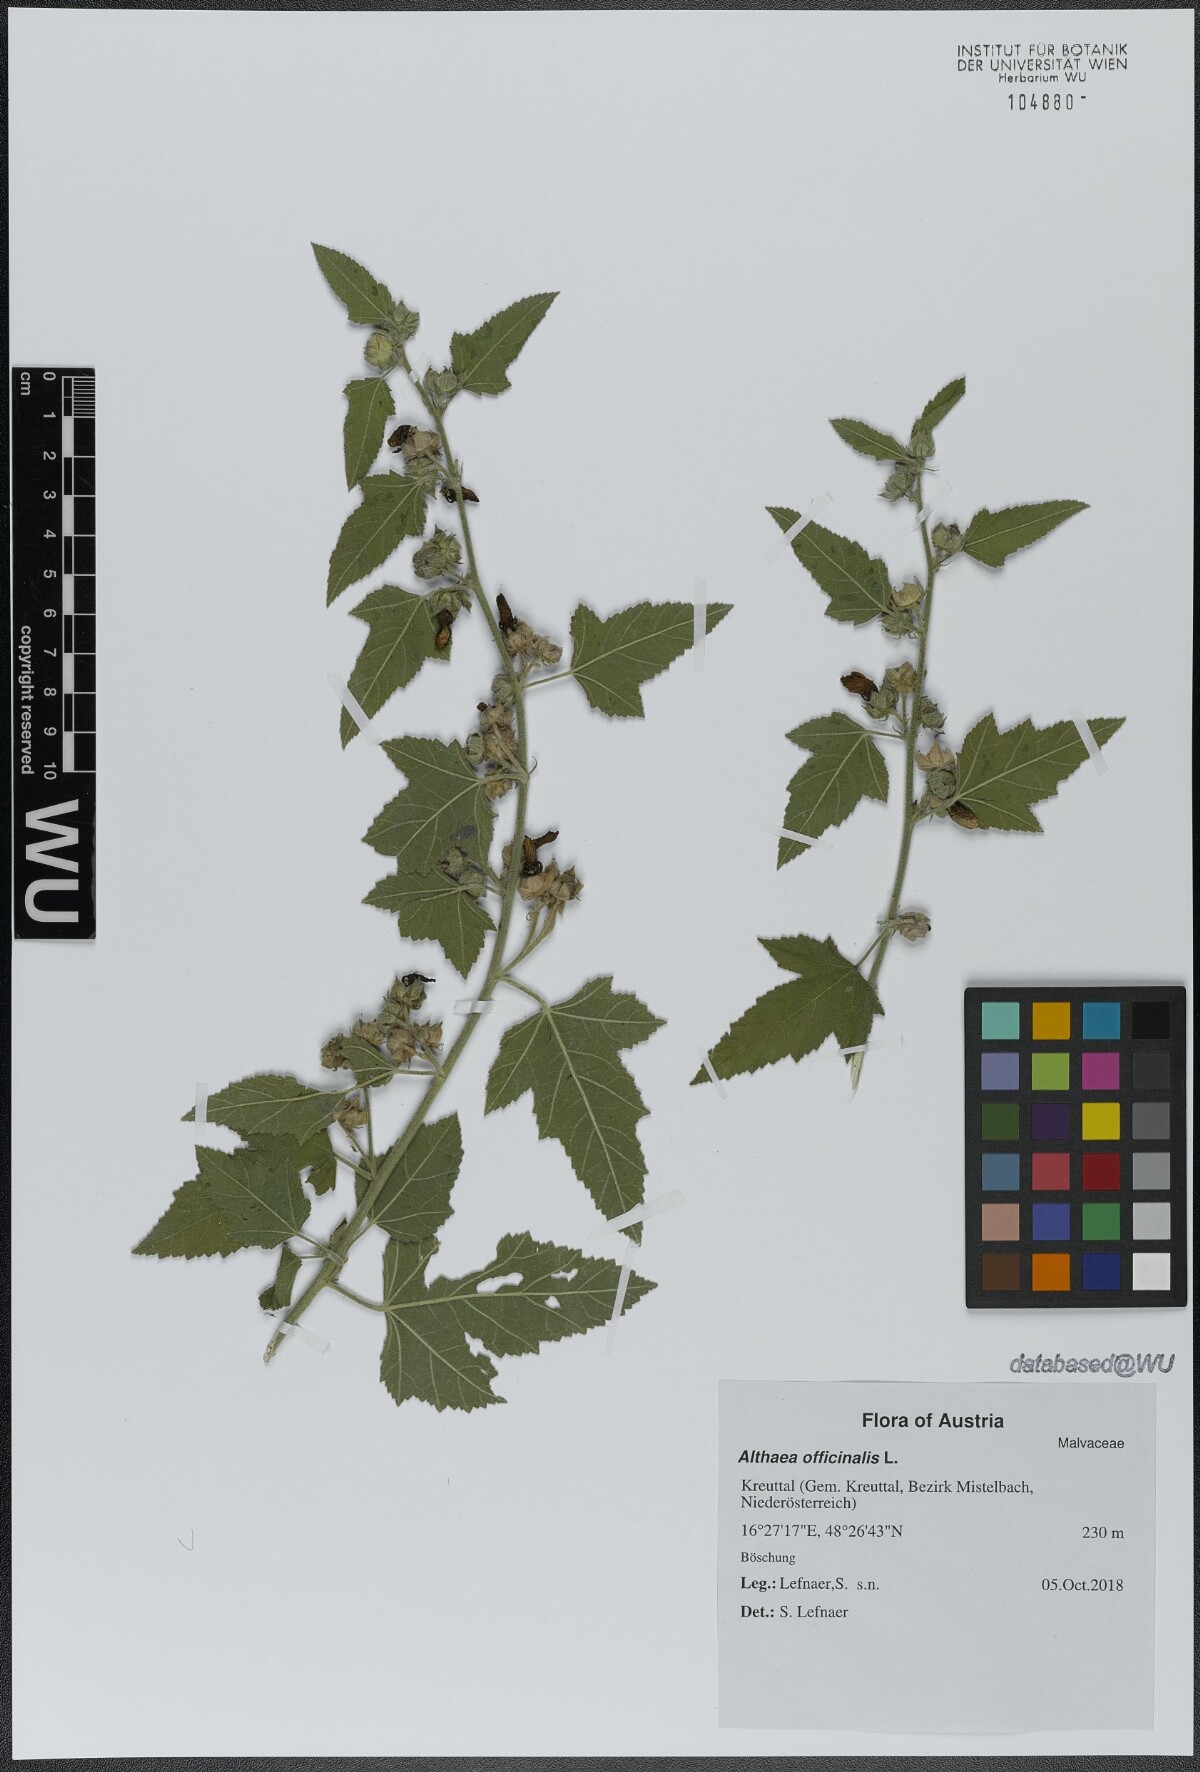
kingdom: Plantae
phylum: Tracheophyta
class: Magnoliopsida
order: Malvales
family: Malvaceae
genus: Althaea
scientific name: Althaea taurinensis
